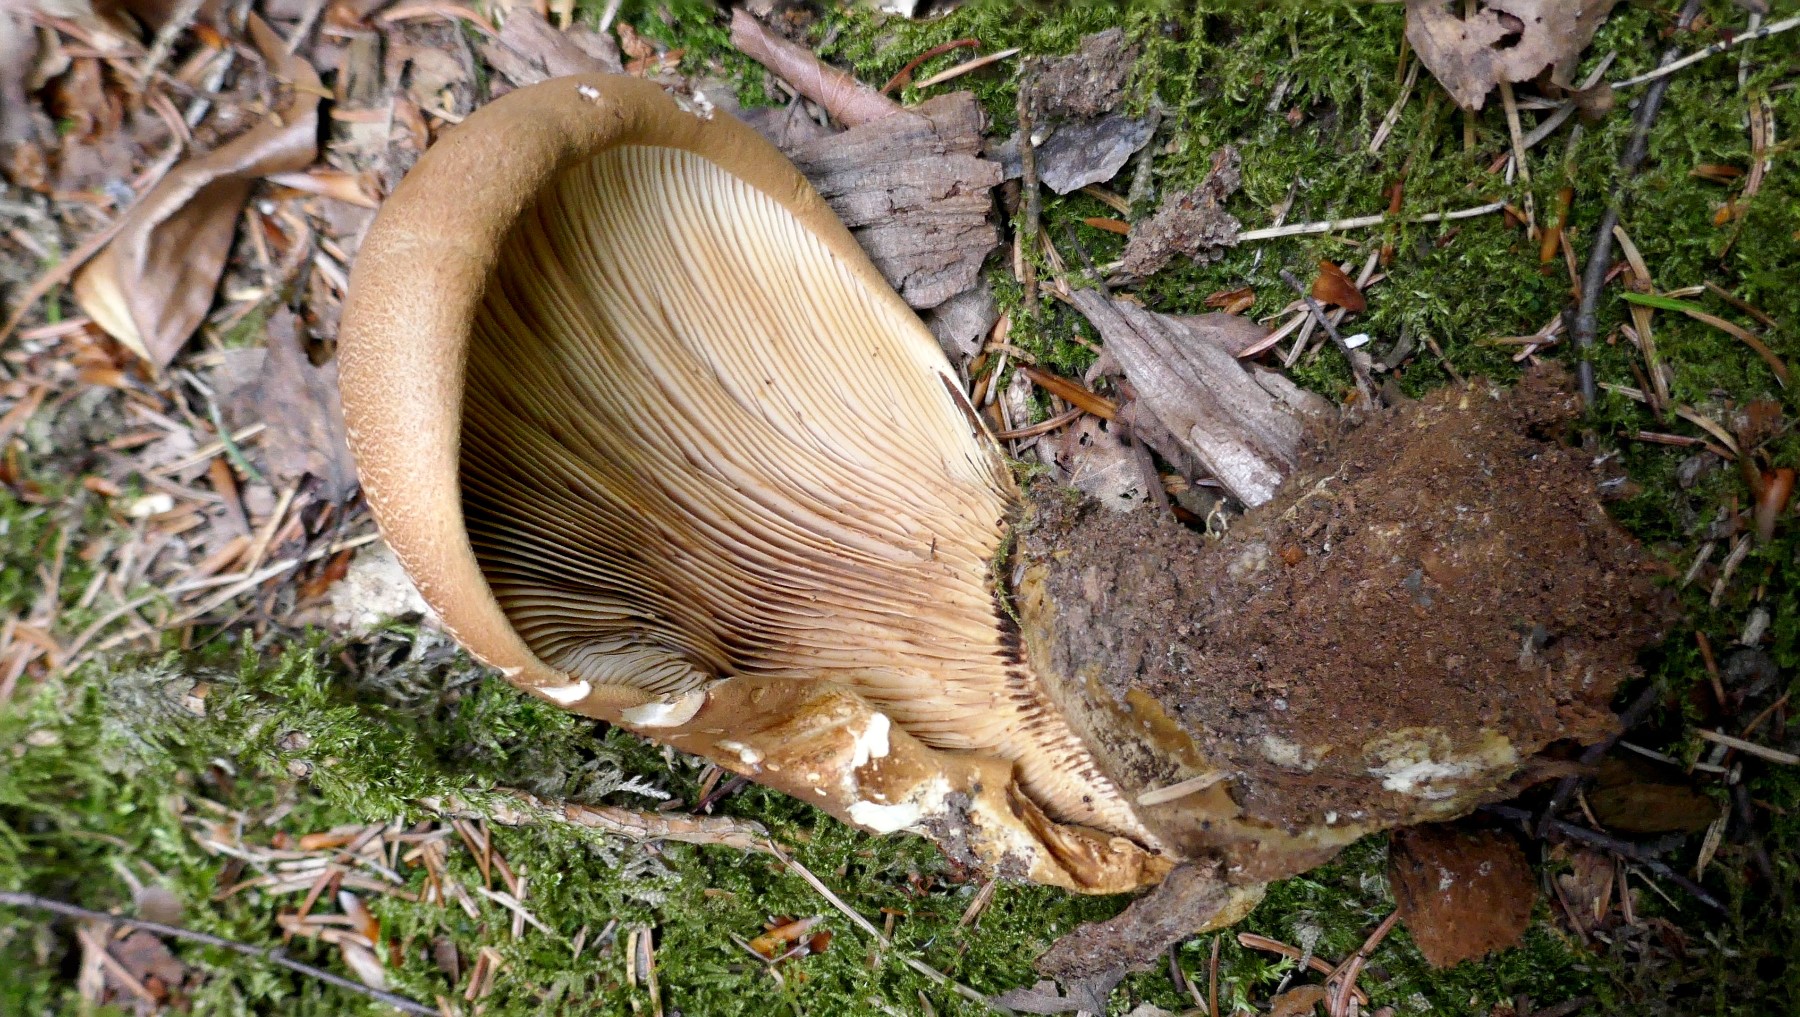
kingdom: Fungi
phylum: Basidiomycota
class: Agaricomycetes
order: Boletales
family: Tapinellaceae
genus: Tapinella
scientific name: Tapinella atrotomentosa
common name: sortfiltet viftesvamp
